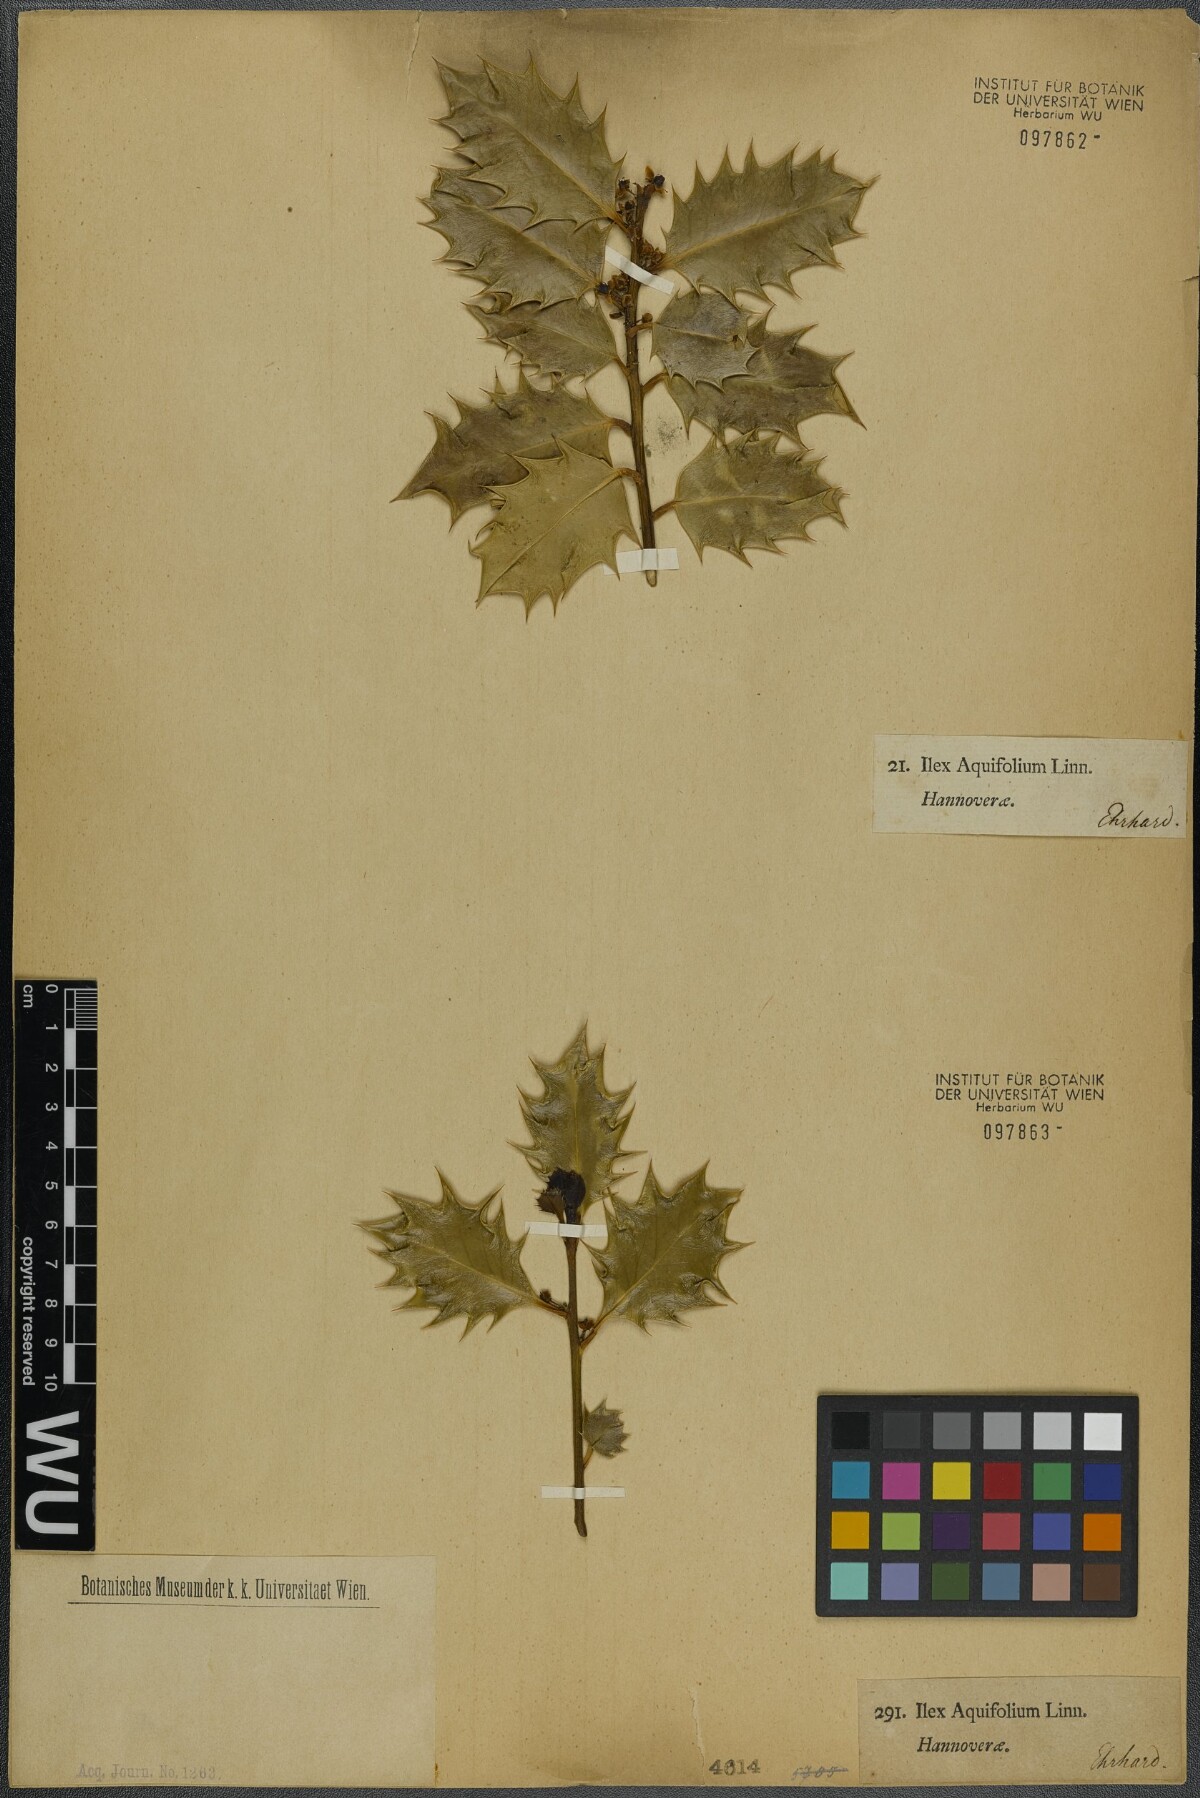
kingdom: Plantae
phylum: Tracheophyta
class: Magnoliopsida
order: Aquifoliales
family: Aquifoliaceae
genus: Ilex
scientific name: Ilex aquifolium
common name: English holly
